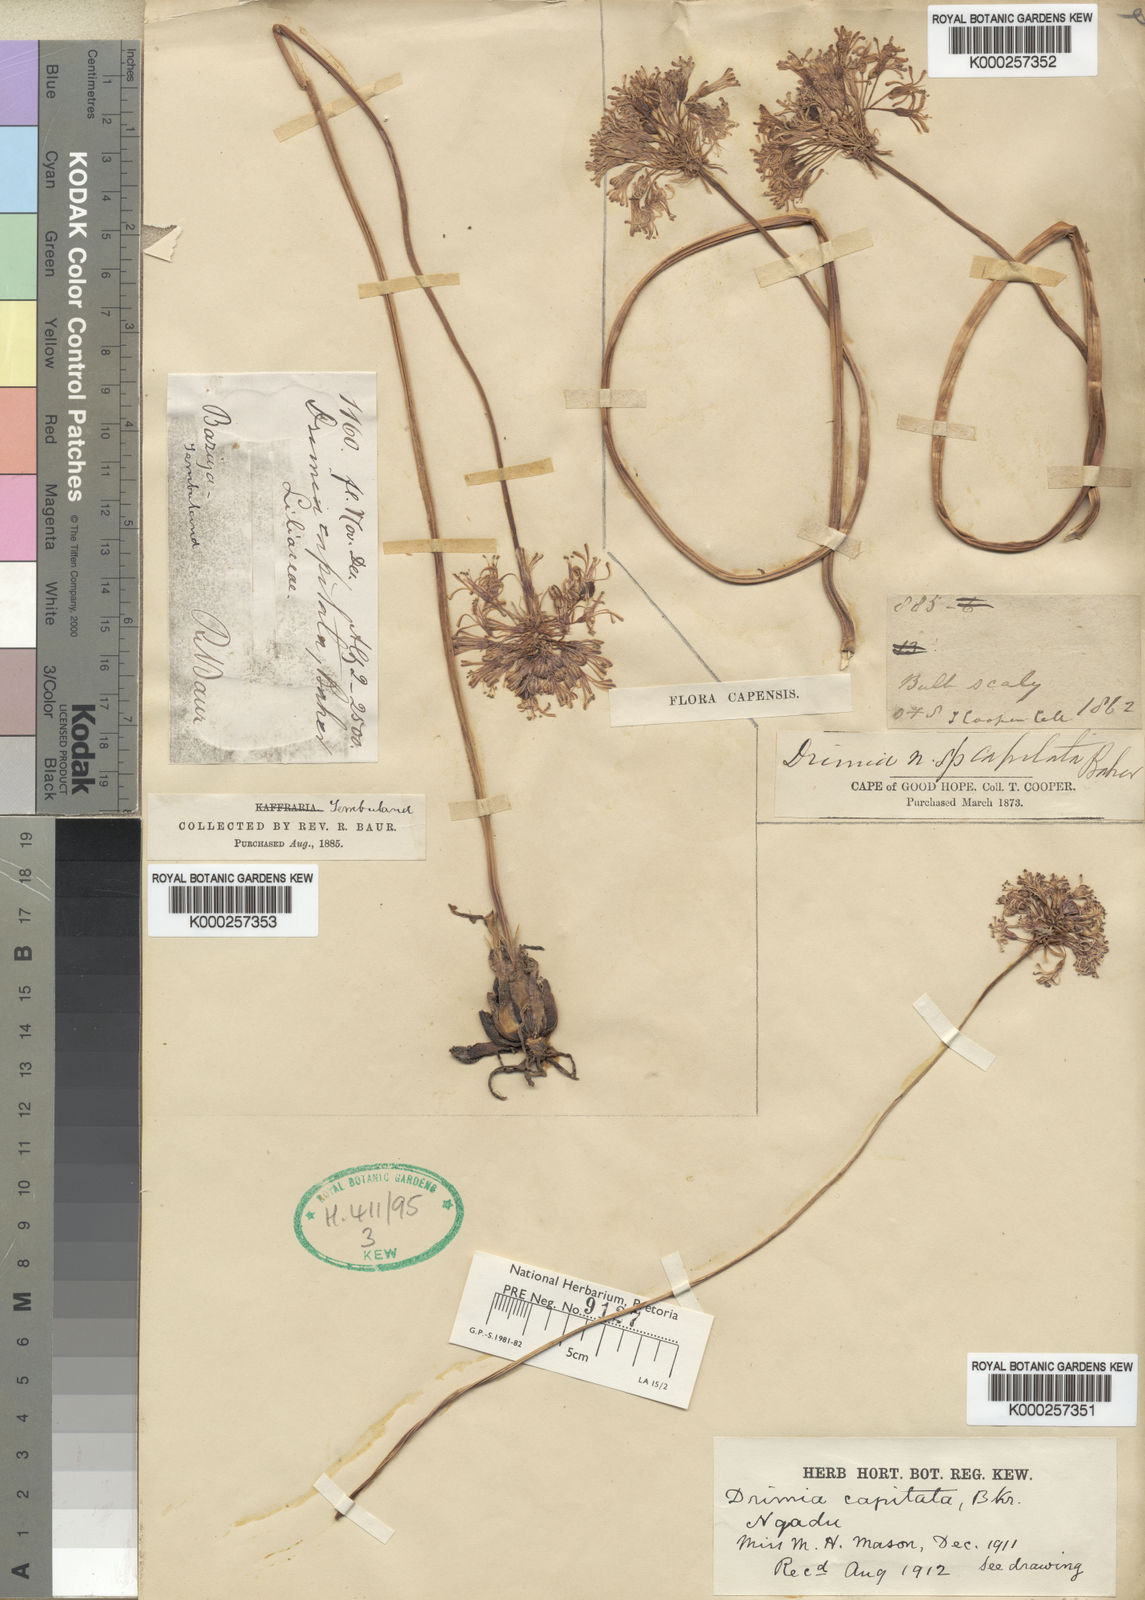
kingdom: Plantae
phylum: Tracheophyta
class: Liliopsida
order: Asparagales
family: Asparagaceae
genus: Drimia
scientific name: Drimia sphaerocephala
